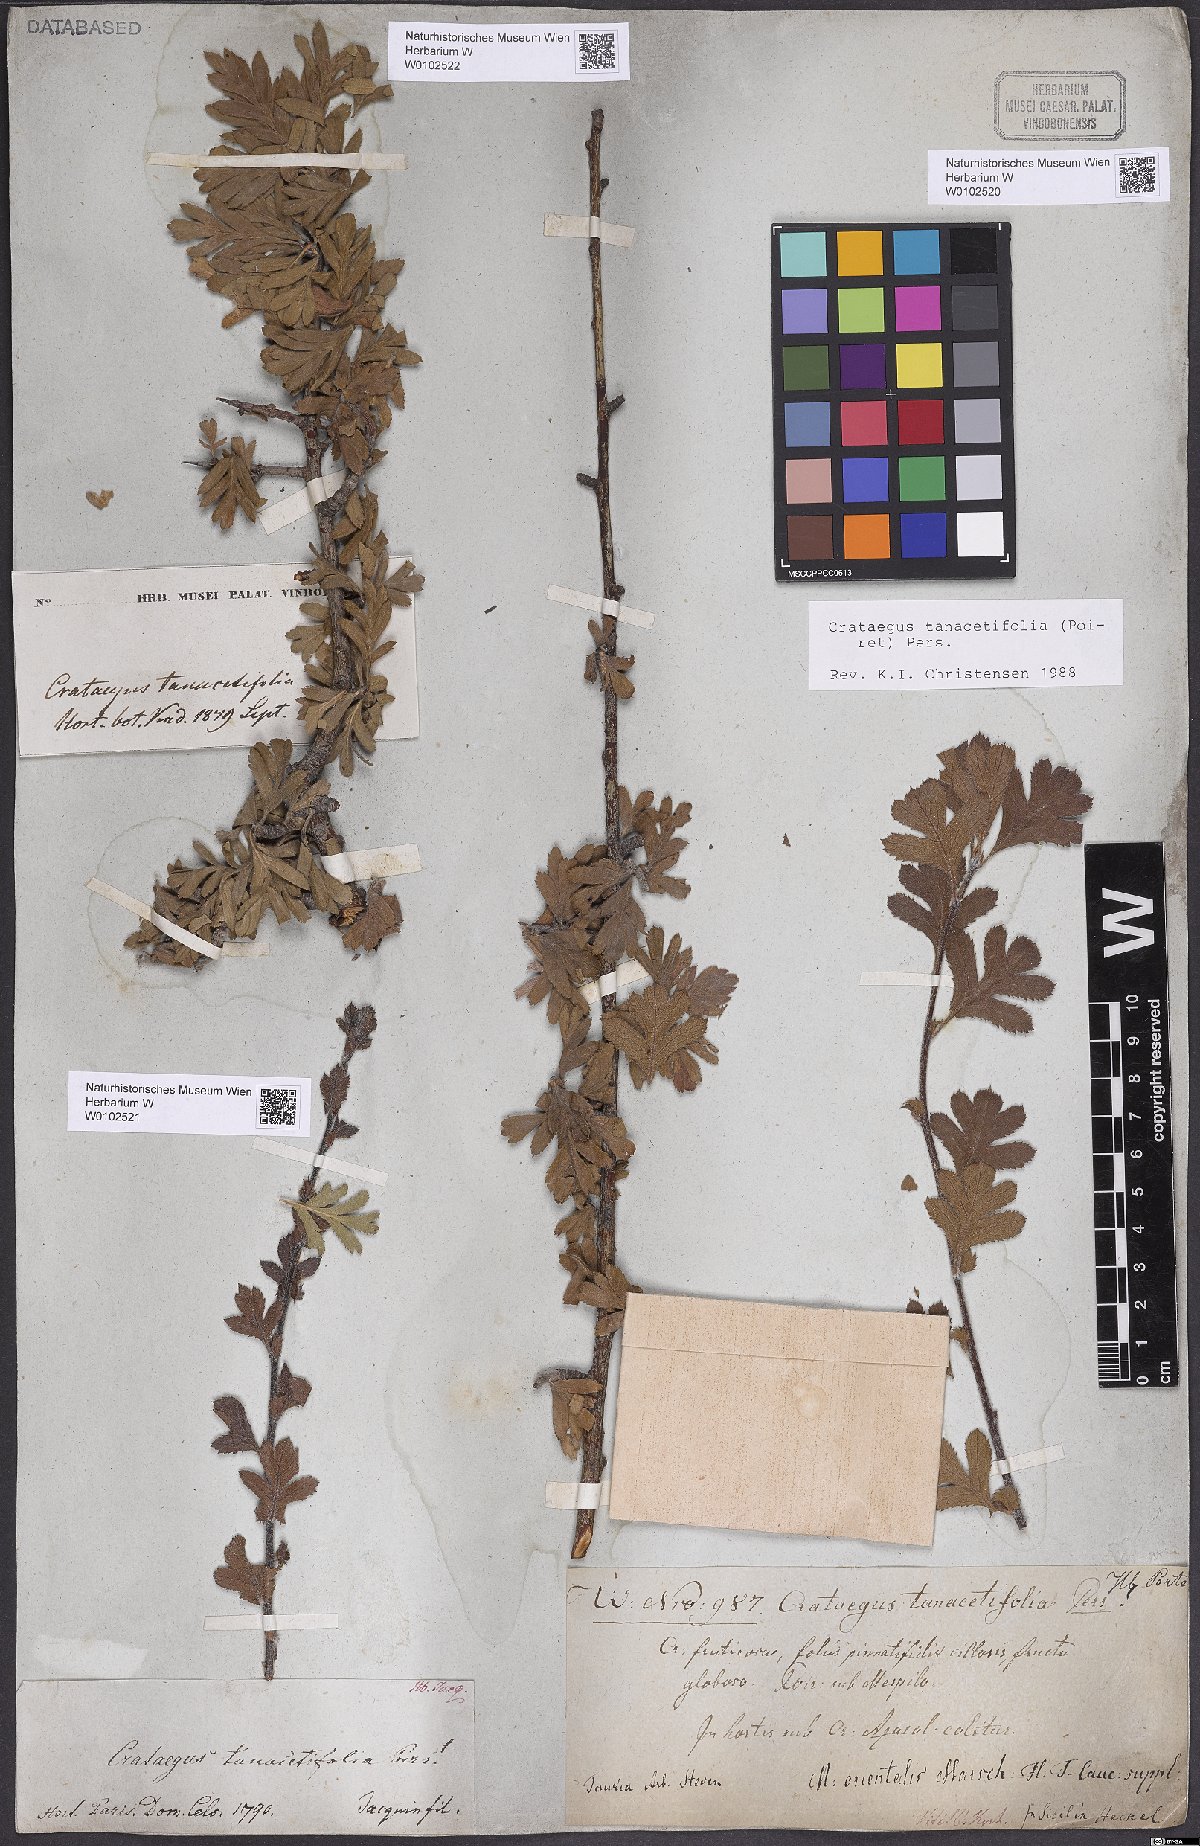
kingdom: Plantae
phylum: Tracheophyta
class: Magnoliopsida
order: Rosales
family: Rosaceae
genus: Crataegus
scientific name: Crataegus tanacetifolia
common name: Tansy-leaved thorn
